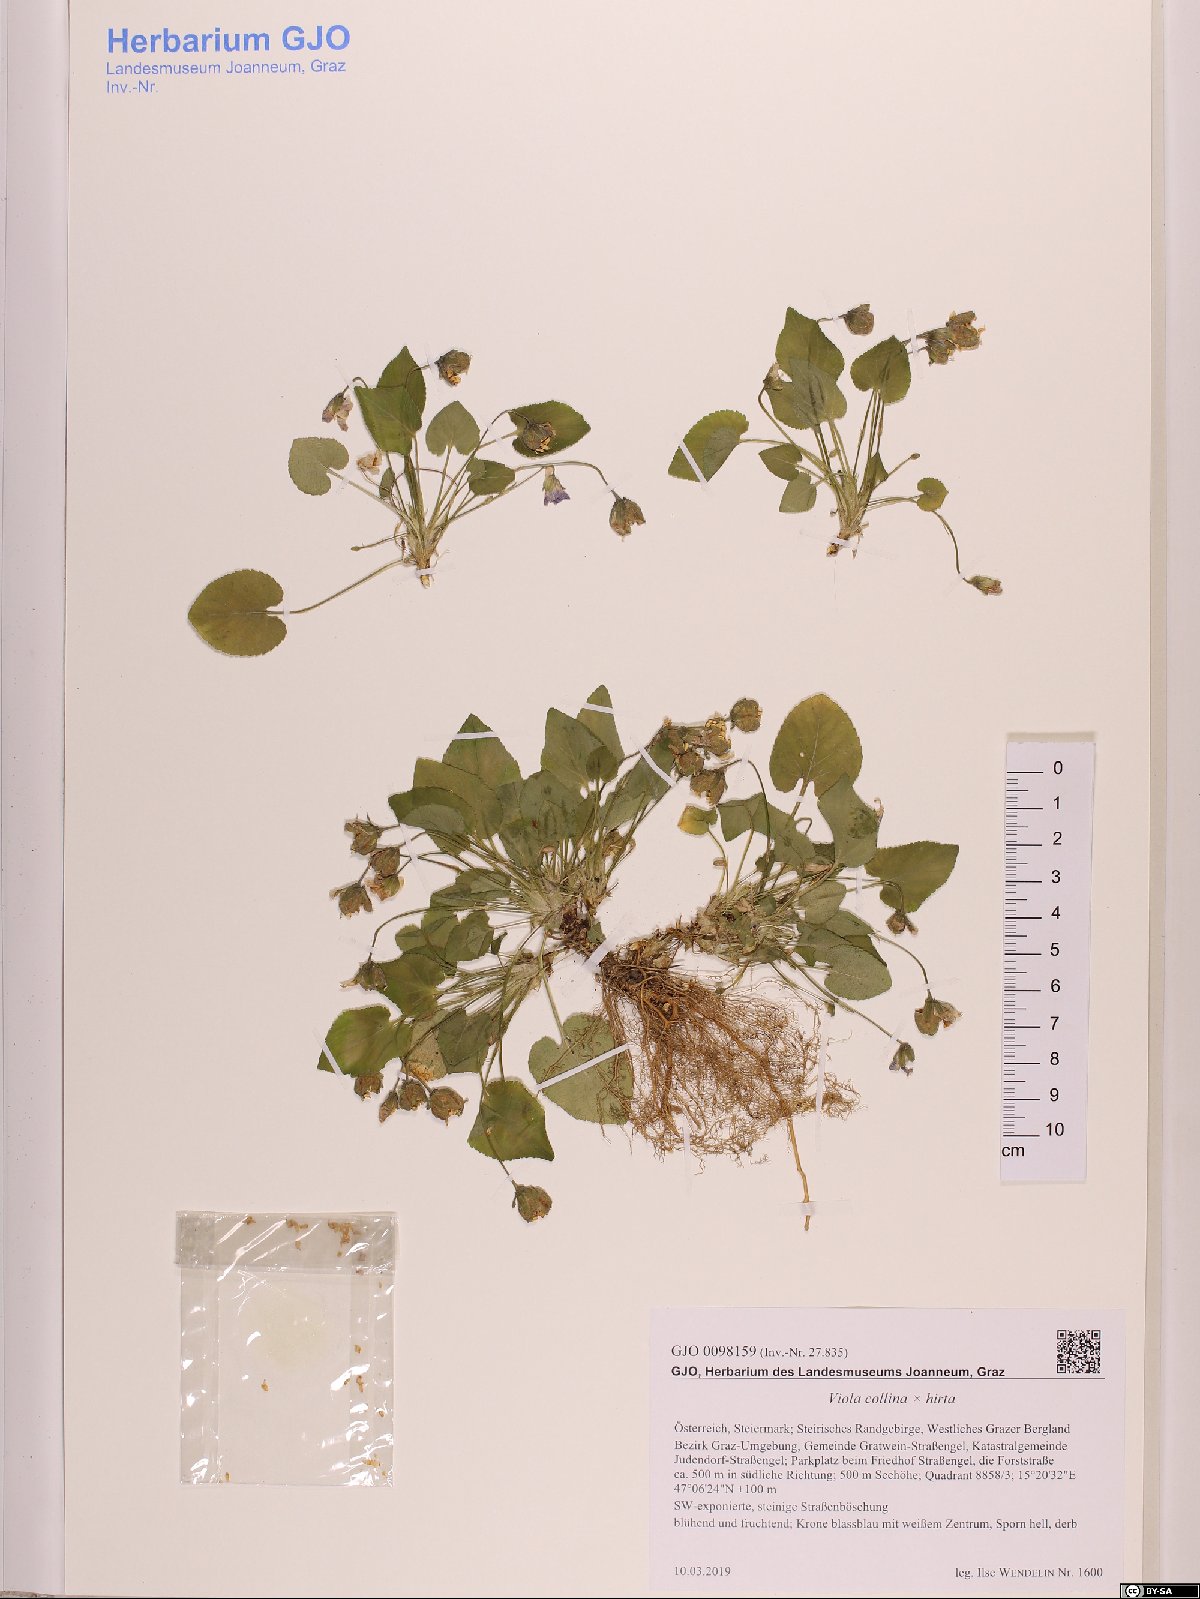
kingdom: Plantae
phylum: Tracheophyta
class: Magnoliopsida
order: Malpighiales
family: Violaceae
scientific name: Violaceae
